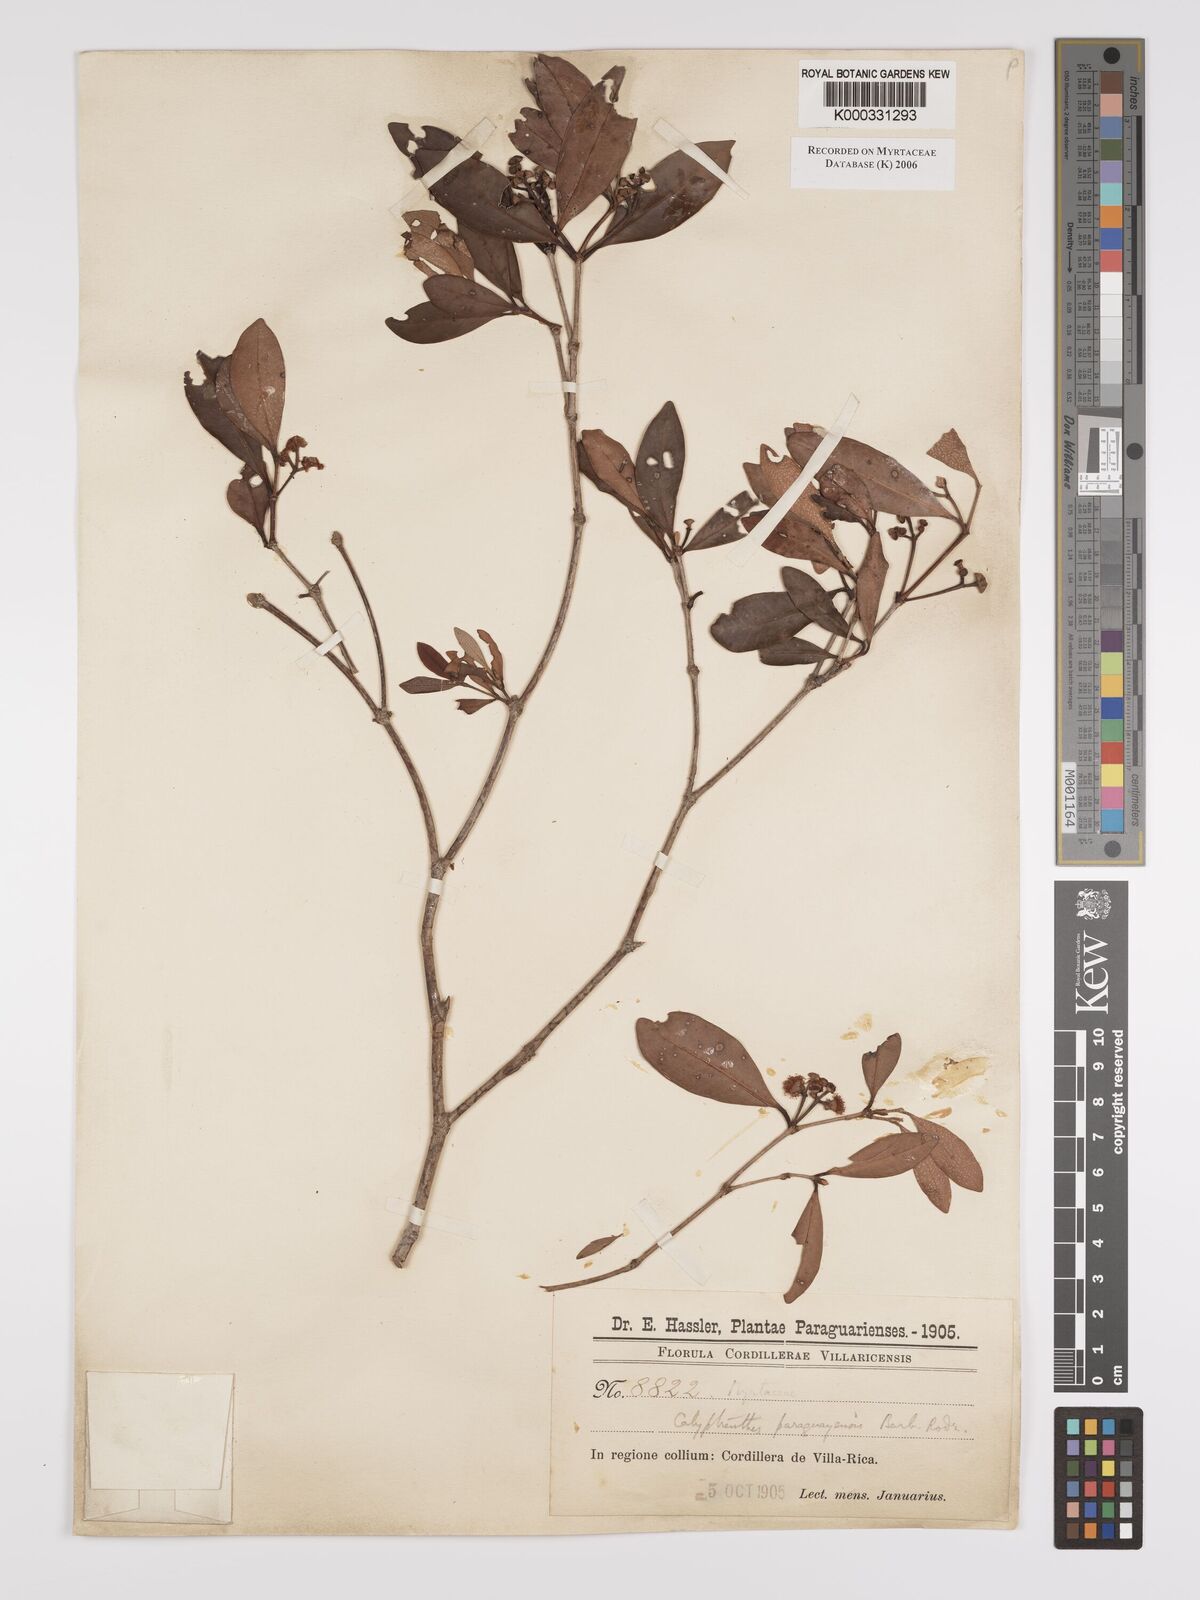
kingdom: Plantae
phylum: Tracheophyta
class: Magnoliopsida
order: Myrtales
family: Myrtaceae
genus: Calyptranthes
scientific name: Calyptranthes
